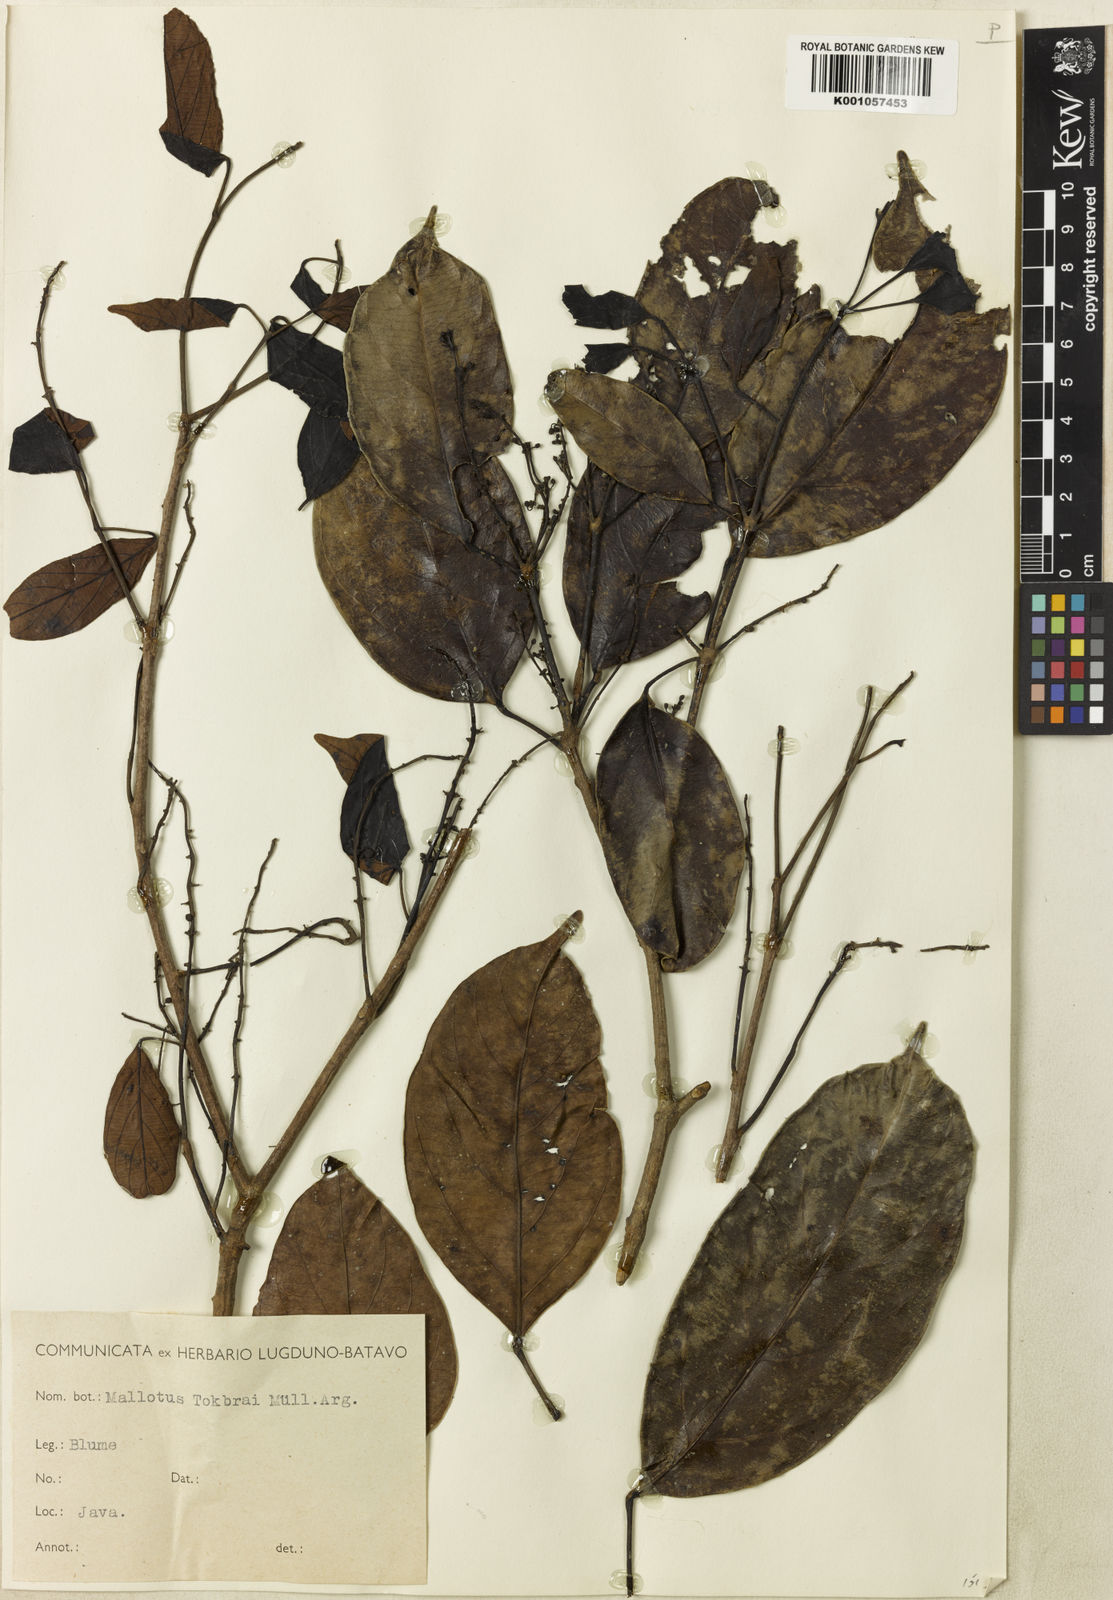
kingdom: Plantae
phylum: Tracheophyta
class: Magnoliopsida
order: Malpighiales
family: Euphorbiaceae
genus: Blumeodendron
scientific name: Blumeodendron tokbrai
